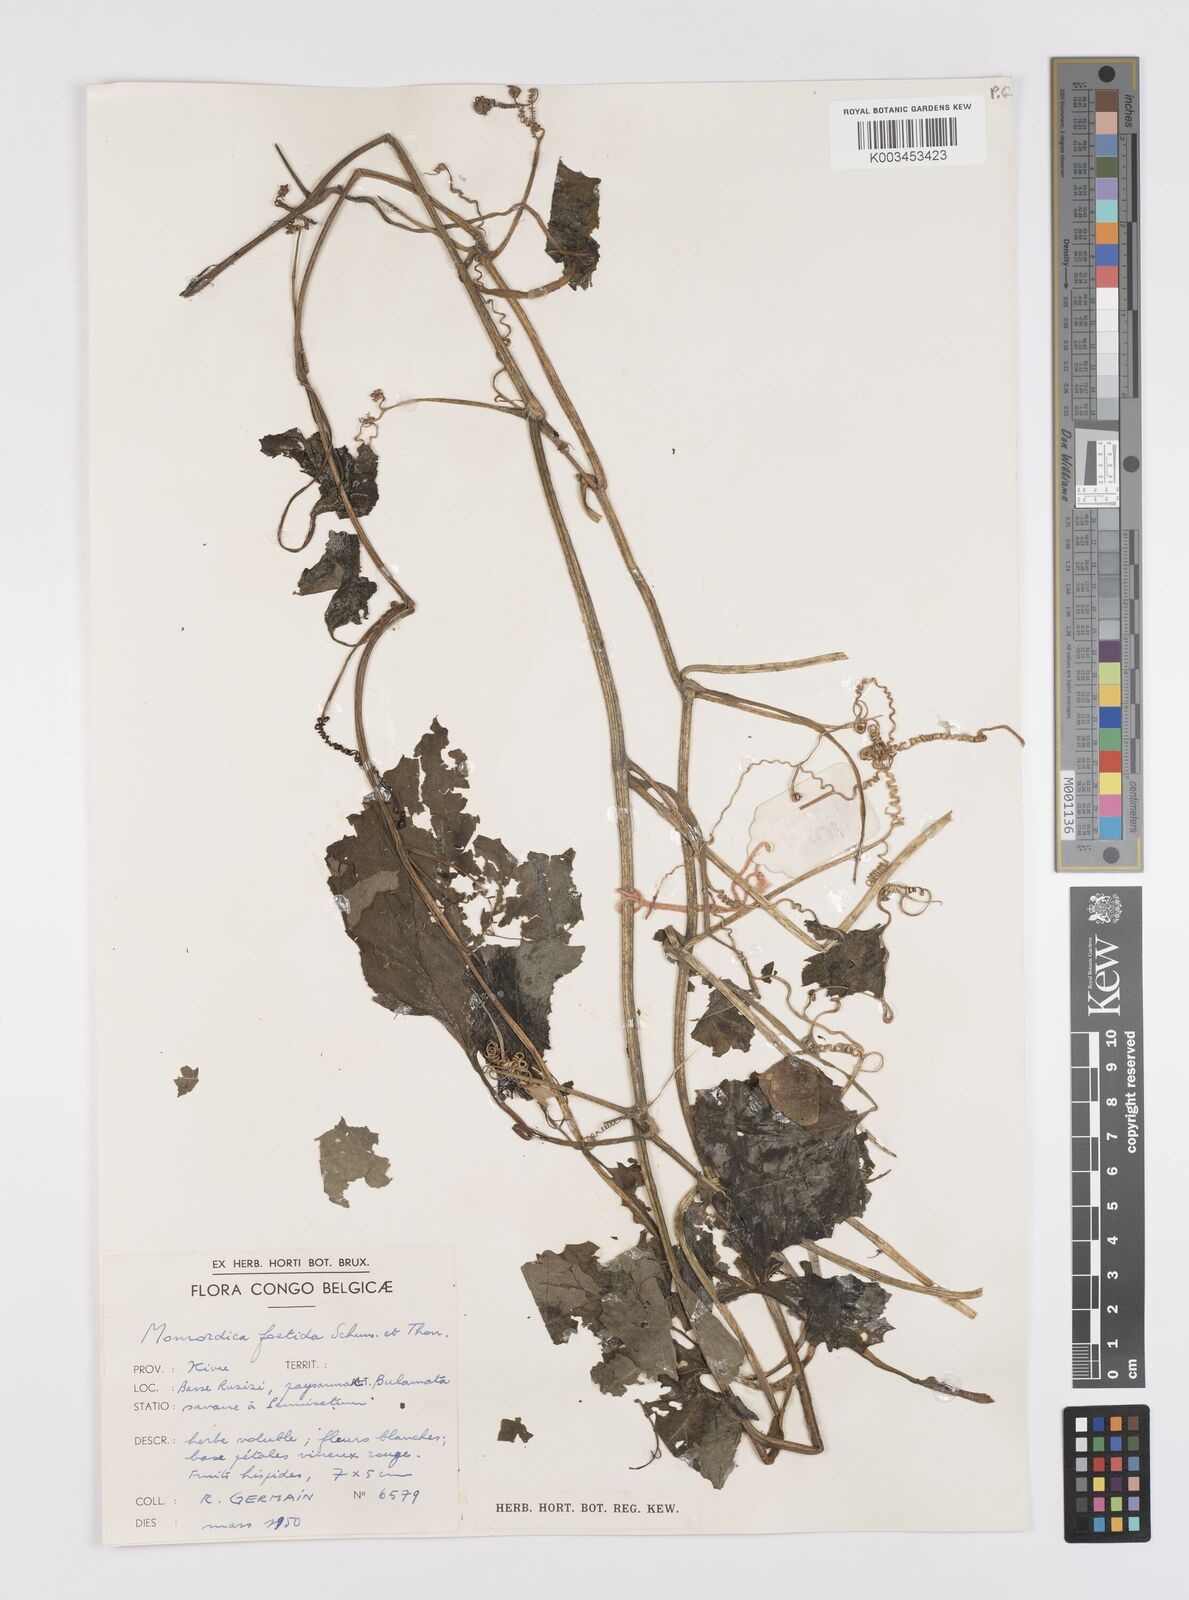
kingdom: Plantae
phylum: Tracheophyta
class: Magnoliopsida
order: Cucurbitales
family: Cucurbitaceae
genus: Momordica
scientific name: Momordica foetida
